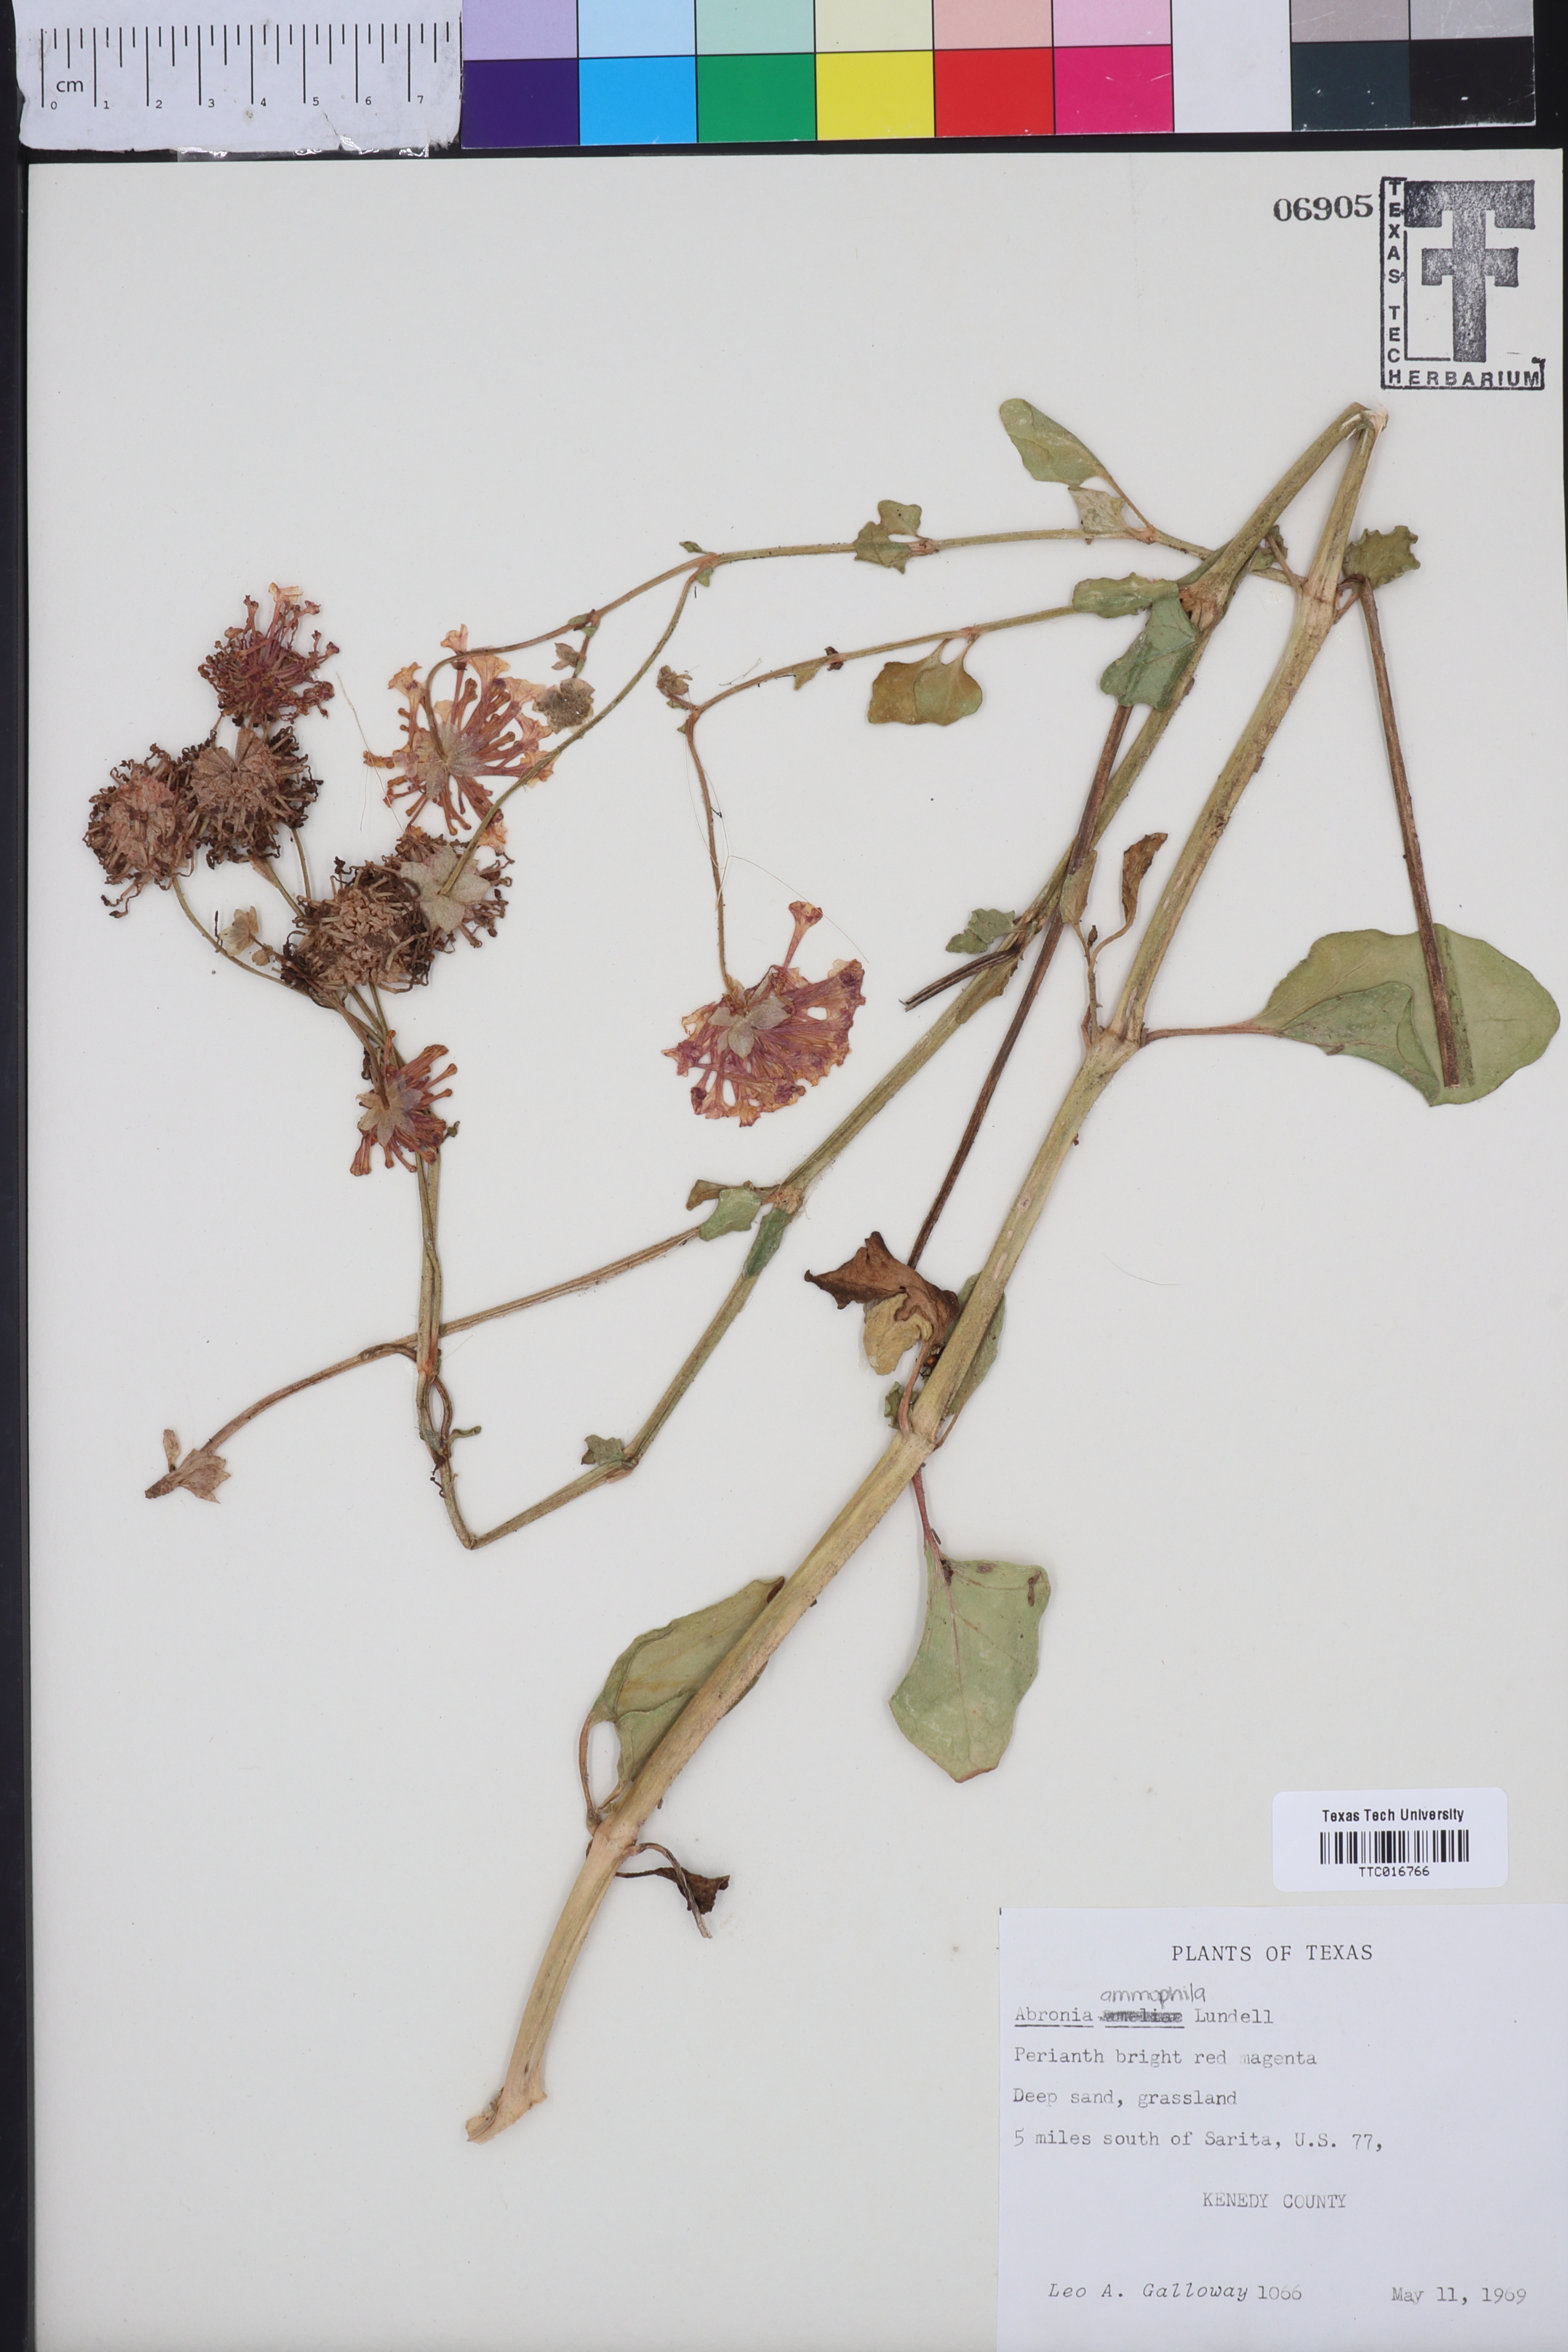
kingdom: Plantae
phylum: Tracheophyta
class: Magnoliopsida
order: Caryophyllales
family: Nyctaginaceae
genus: Abronia
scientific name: Abronia ameliae
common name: Amelia's sand-verbena
